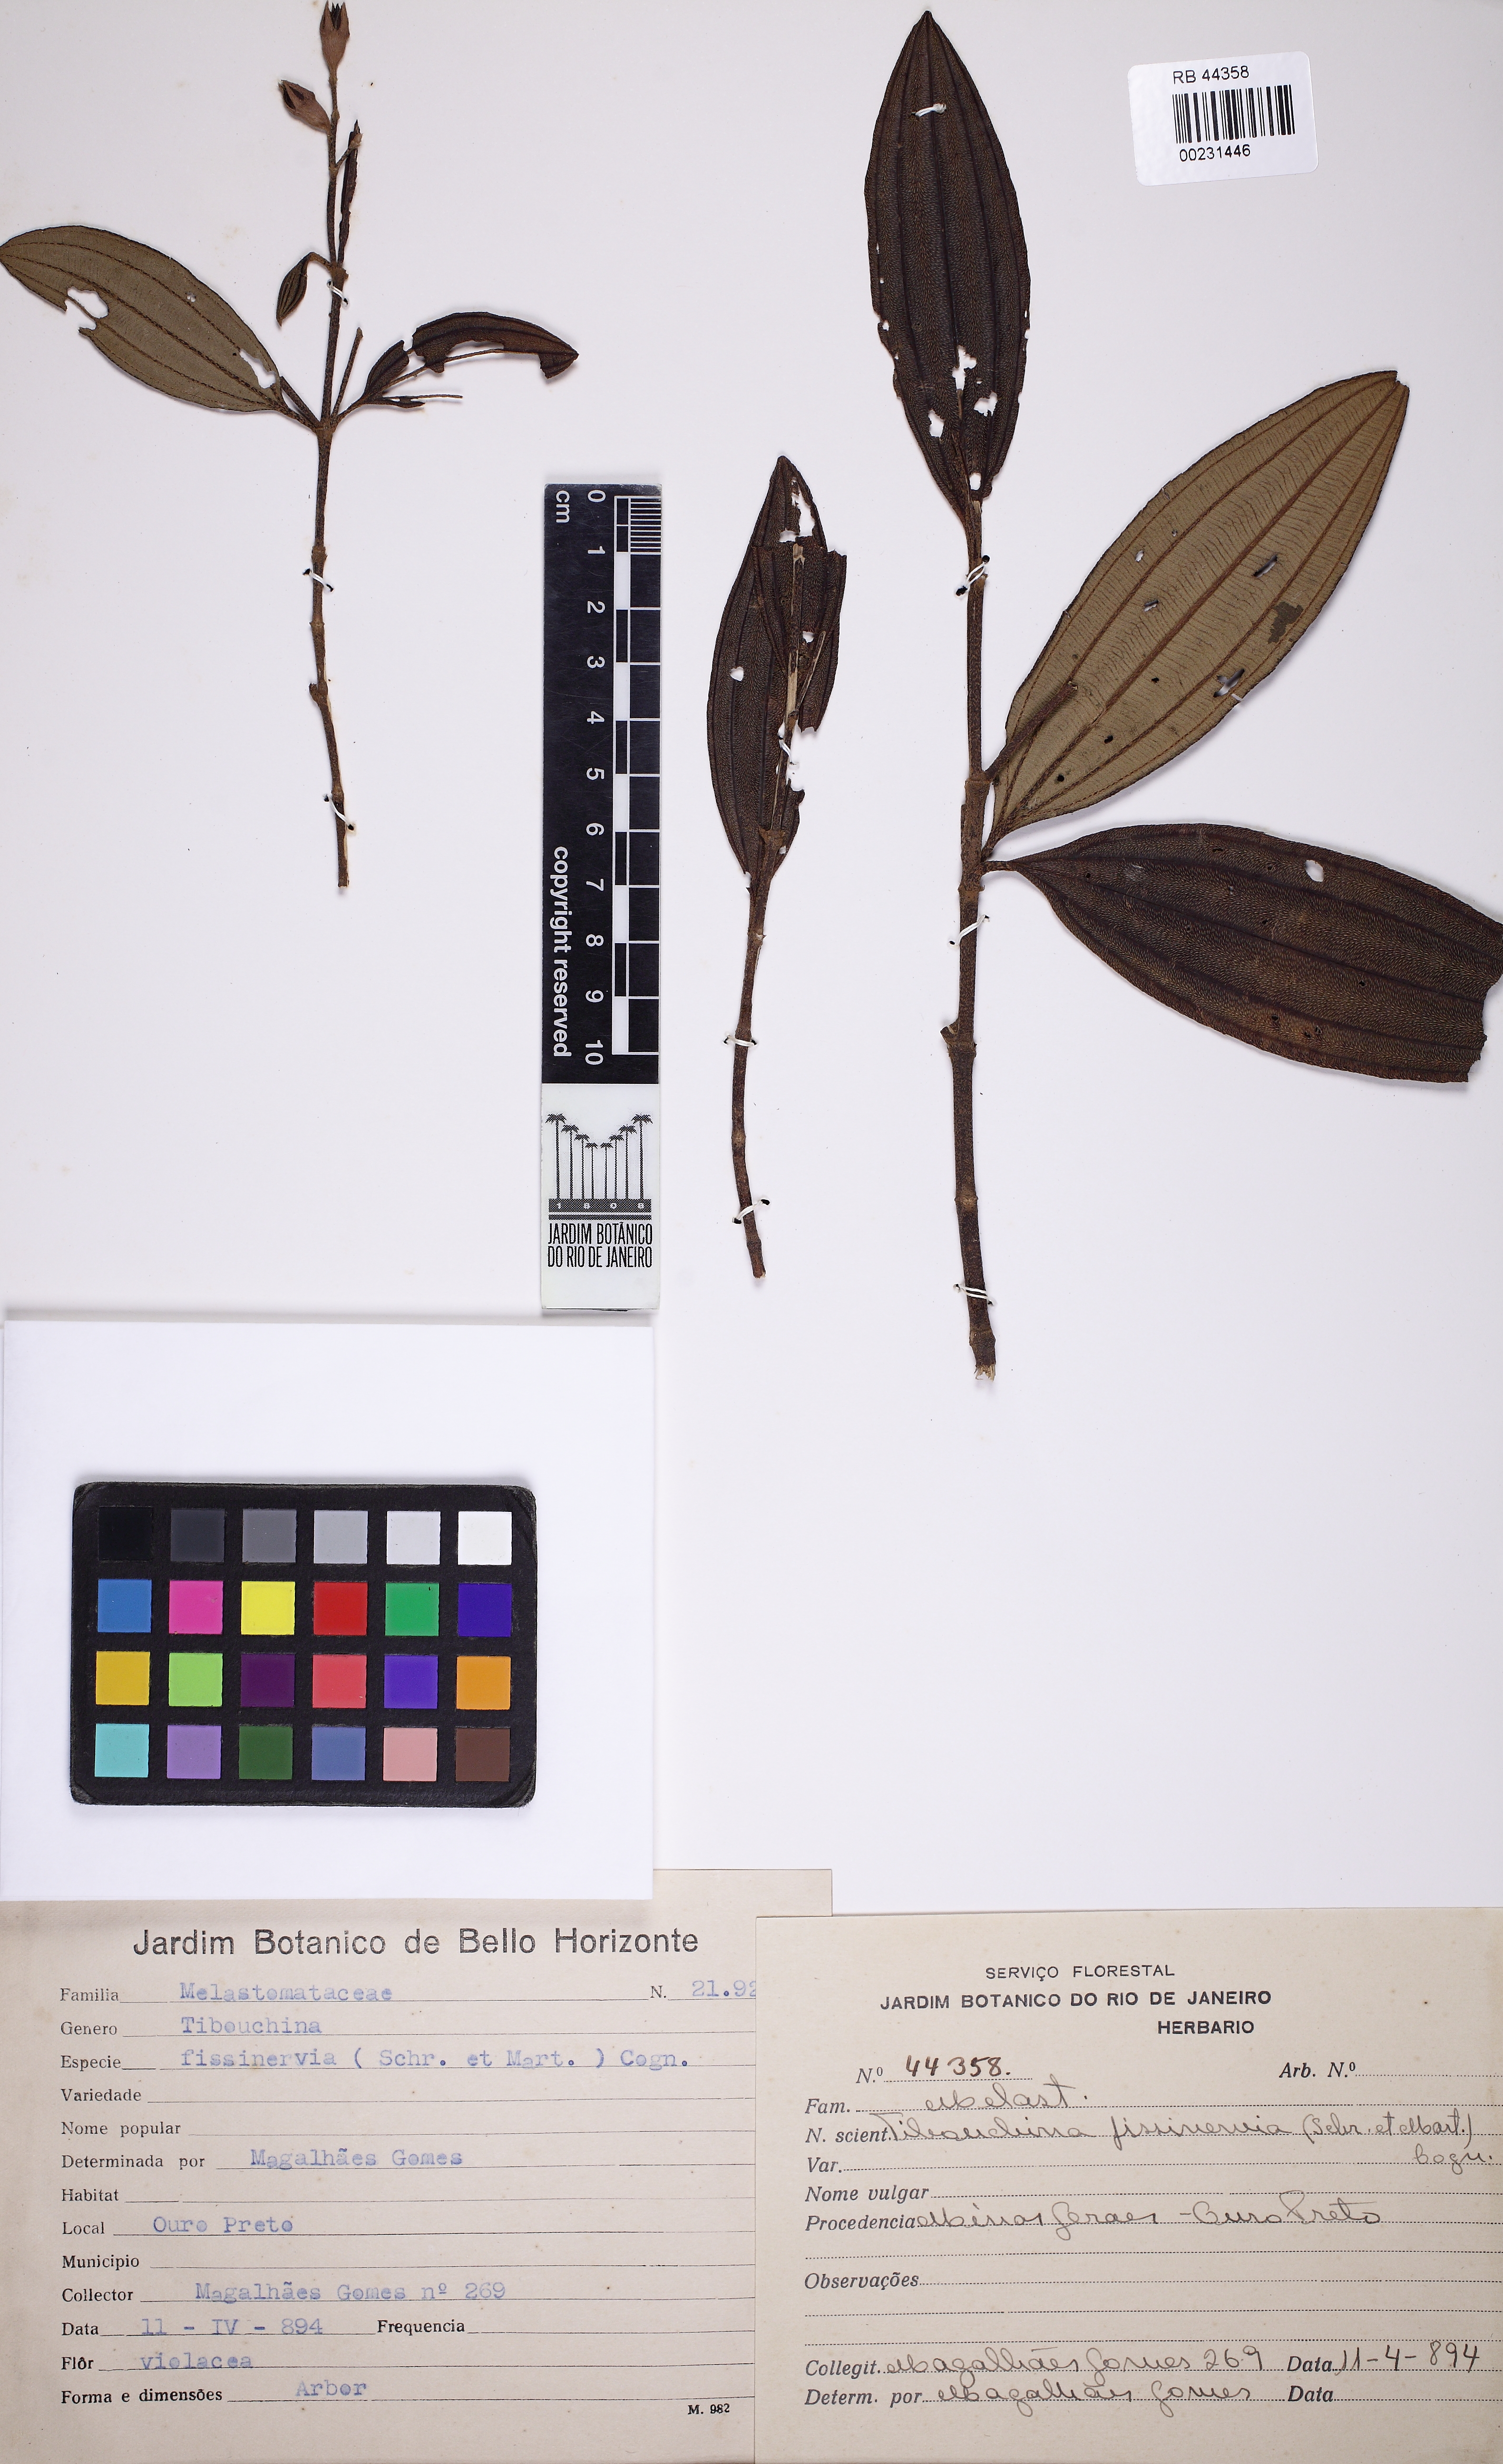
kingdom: Plantae
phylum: Tracheophyta
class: Magnoliopsida
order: Myrtales
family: Melastomataceae
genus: Pleroma
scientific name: Pleroma fissinervium
